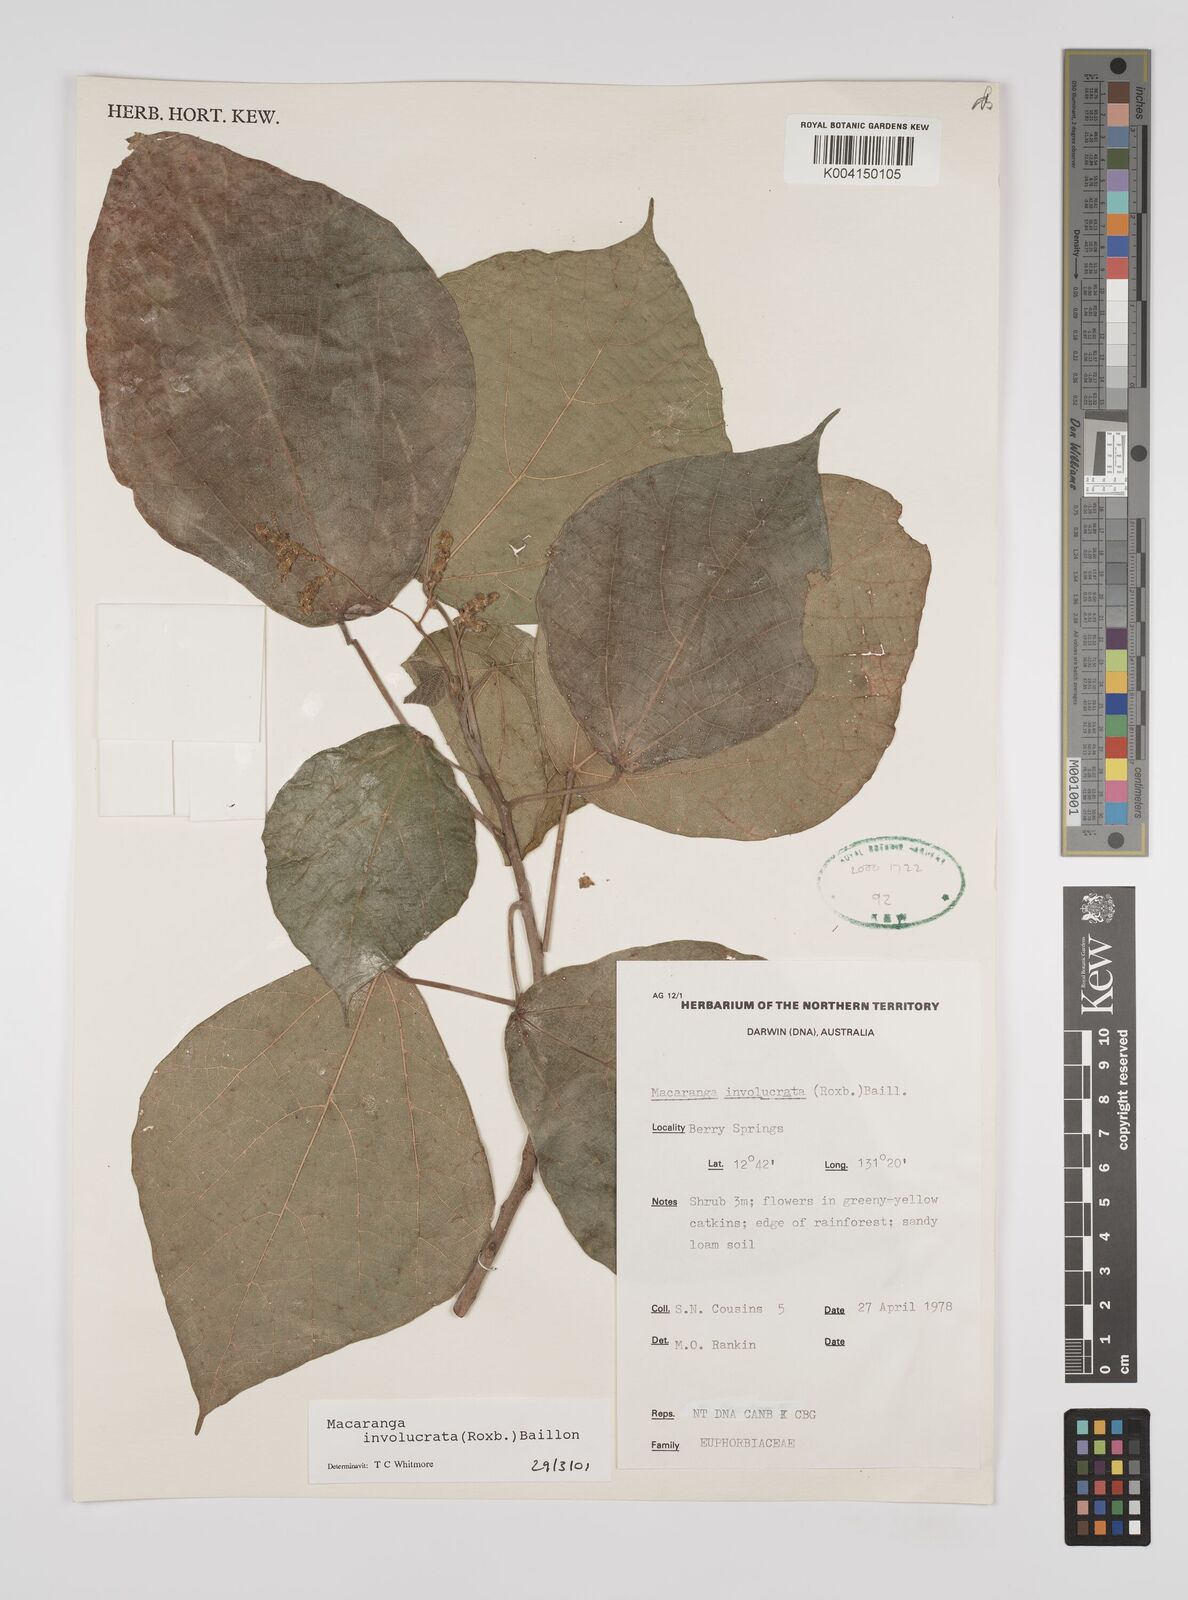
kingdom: Plantae
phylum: Tracheophyta
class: Magnoliopsida
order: Malpighiales
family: Euphorbiaceae
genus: Macaranga
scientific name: Macaranga involucrata
